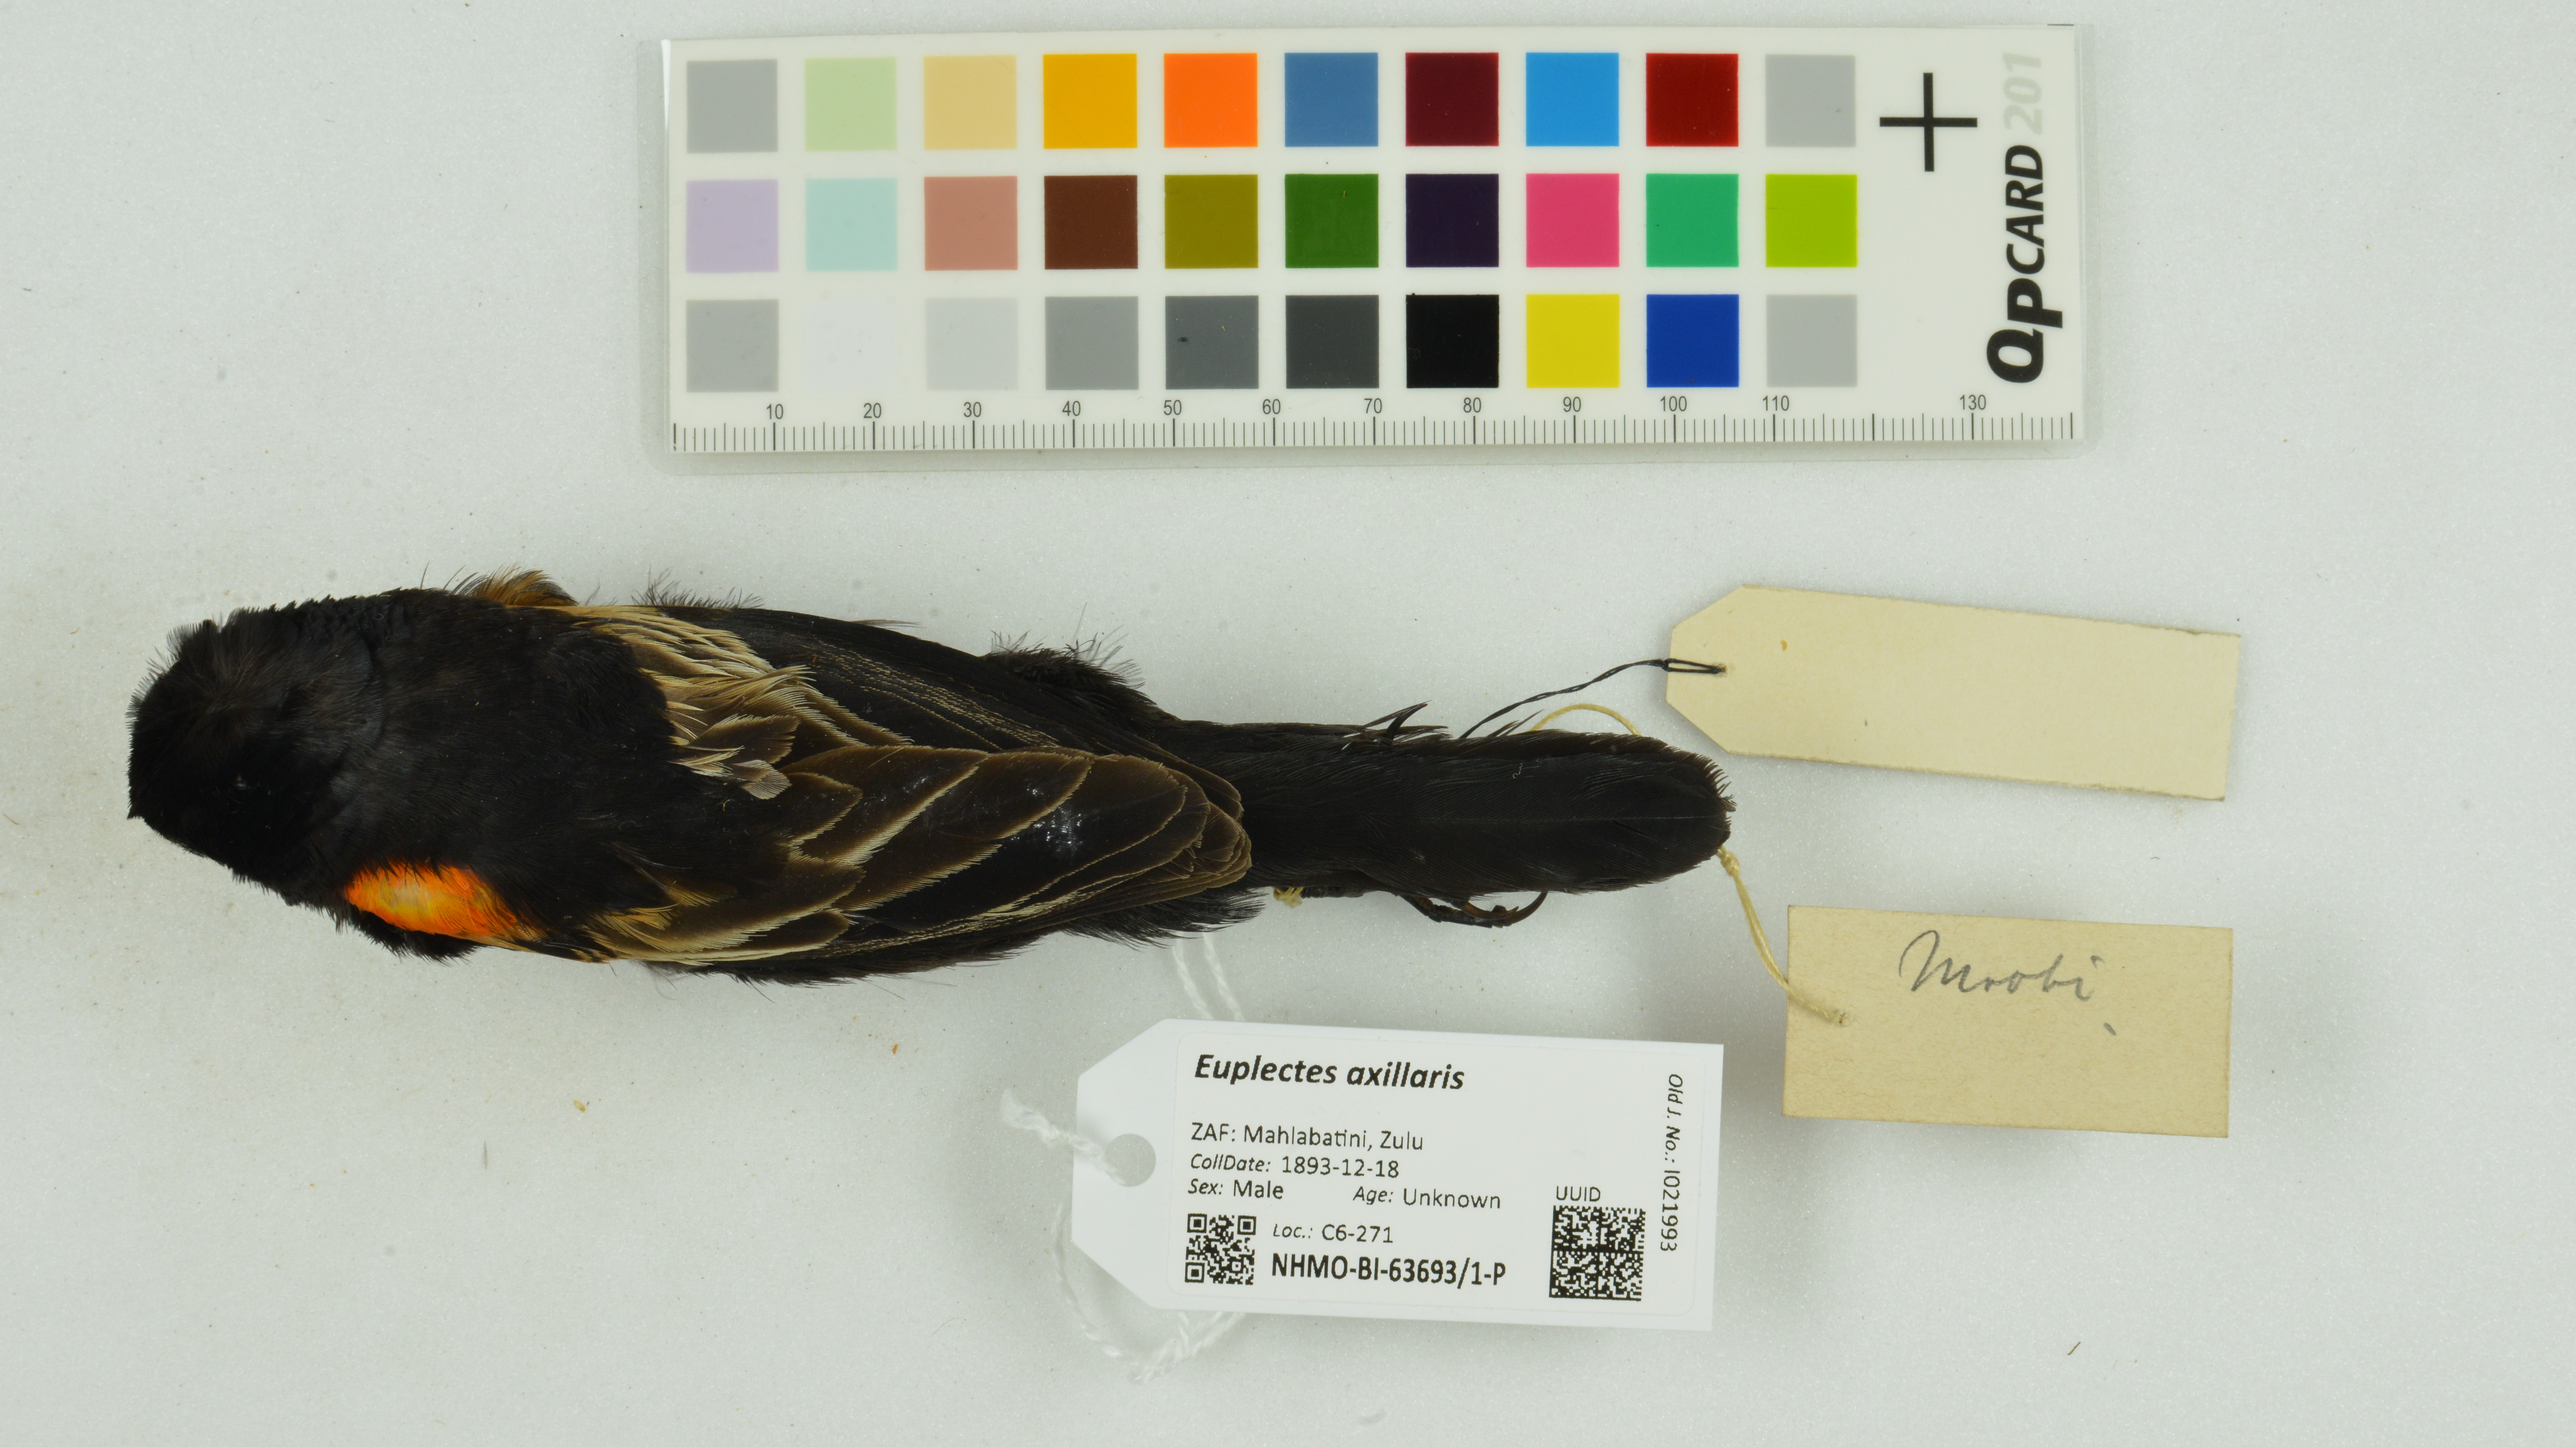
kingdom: Animalia
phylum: Chordata
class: Aves
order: Passeriformes
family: Ploceidae
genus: Euplectes
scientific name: Euplectes axillaris
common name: Fan-tailed widowbird
